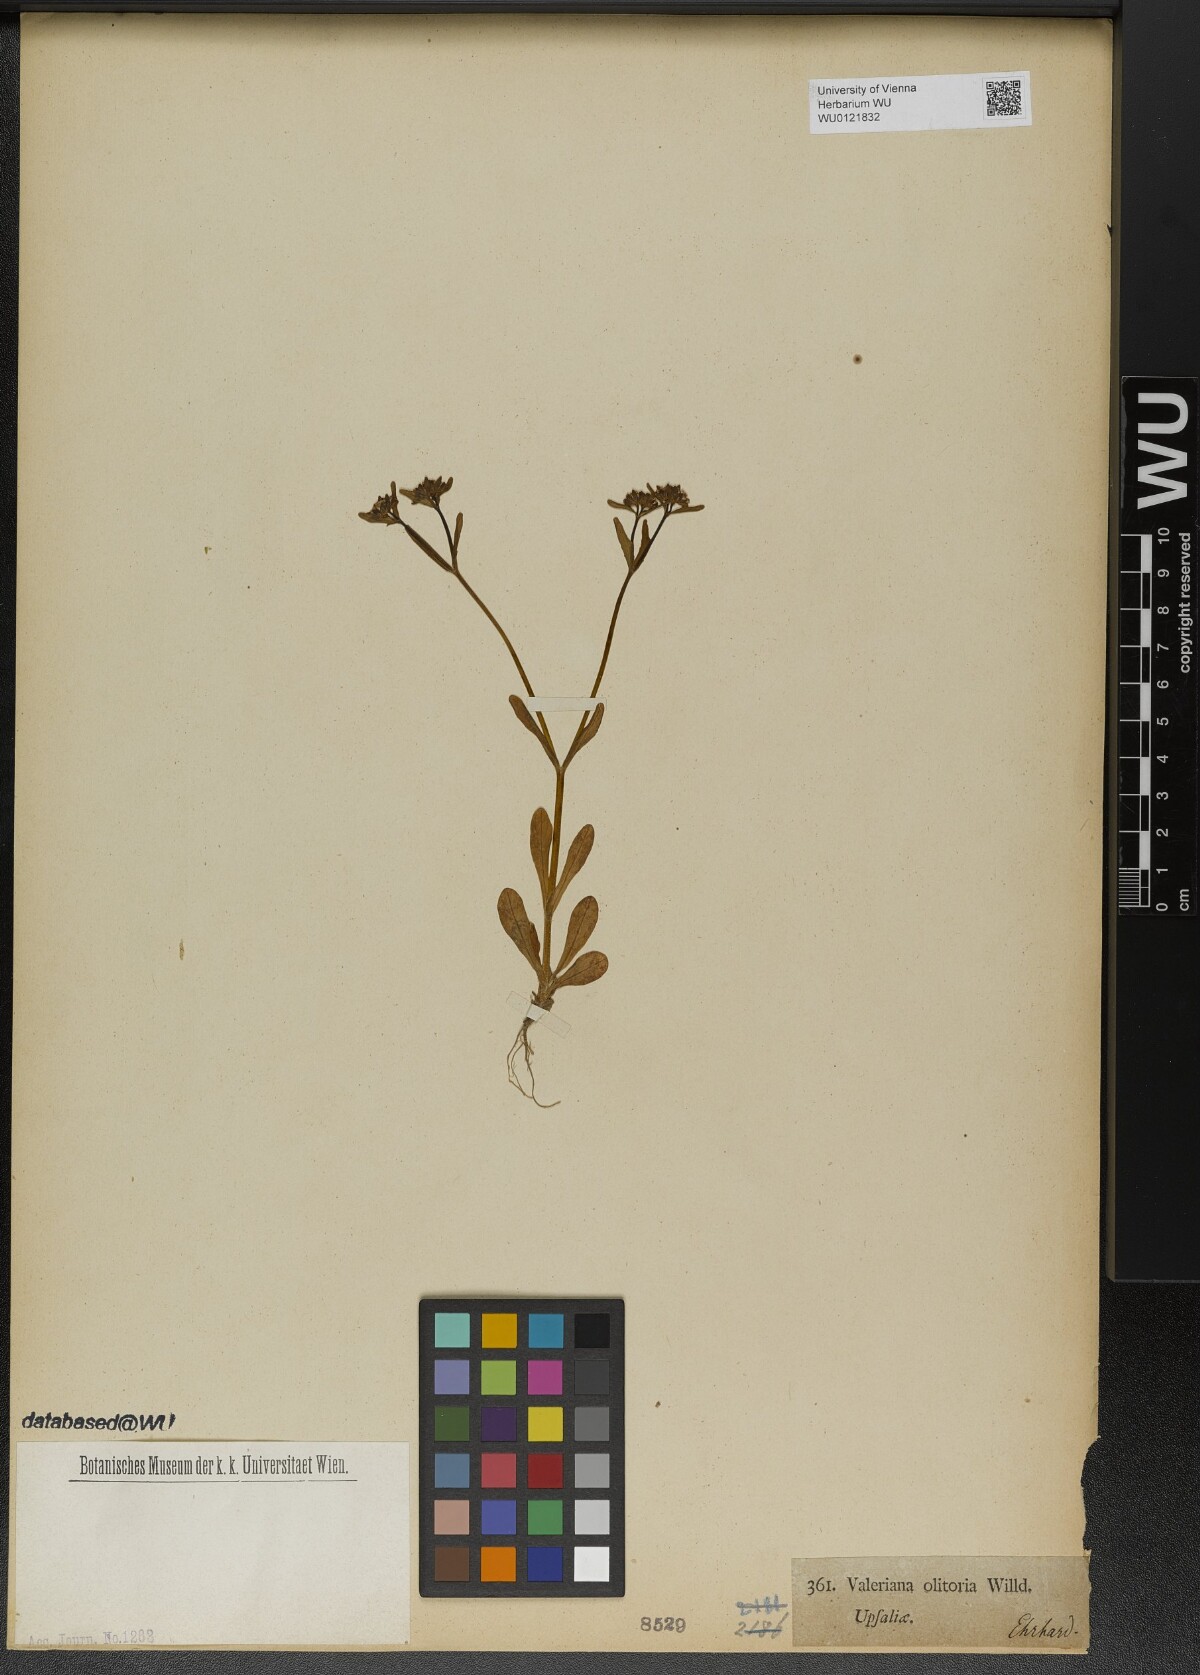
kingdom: Plantae
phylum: Tracheophyta
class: Magnoliopsida
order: Dipsacales
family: Caprifoliaceae
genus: Valerianella
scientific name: Valerianella locusta
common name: Common cornsalad
